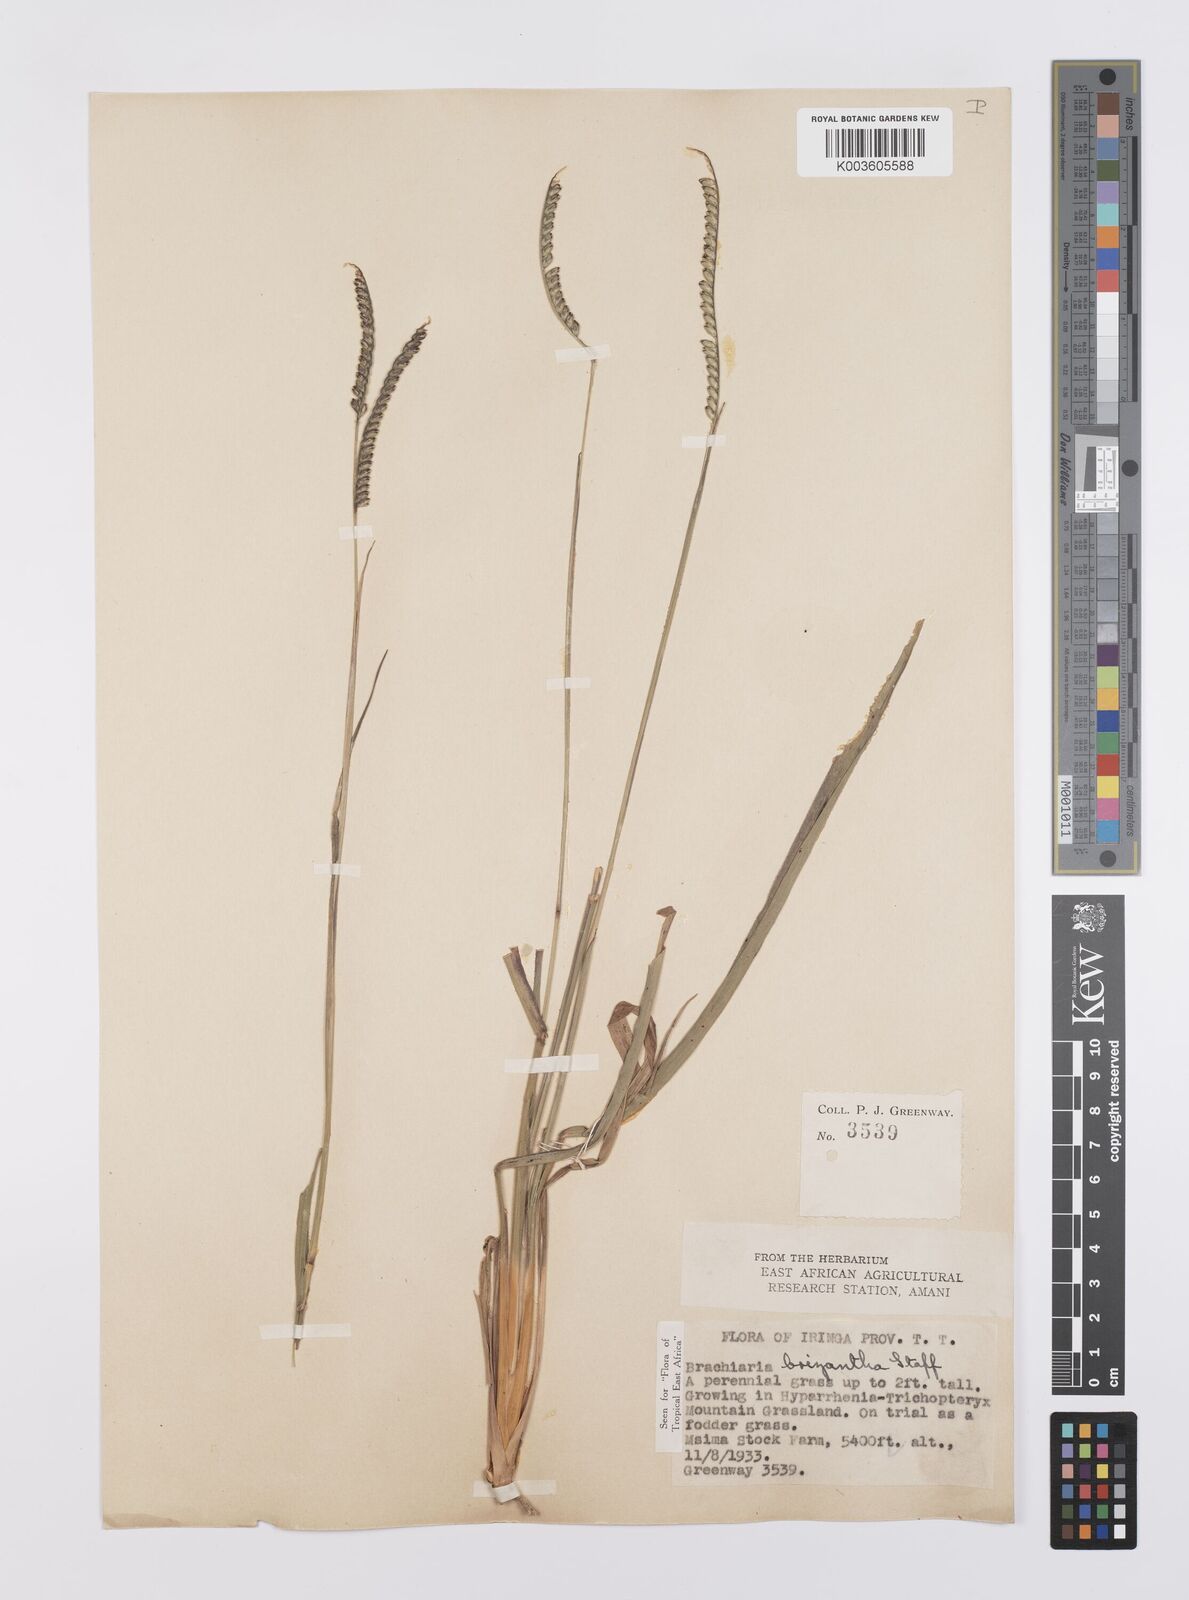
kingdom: Plantae
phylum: Tracheophyta
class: Liliopsida
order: Poales
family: Poaceae
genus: Urochloa
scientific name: Urochloa brizantha
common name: Palisade signalgrass
